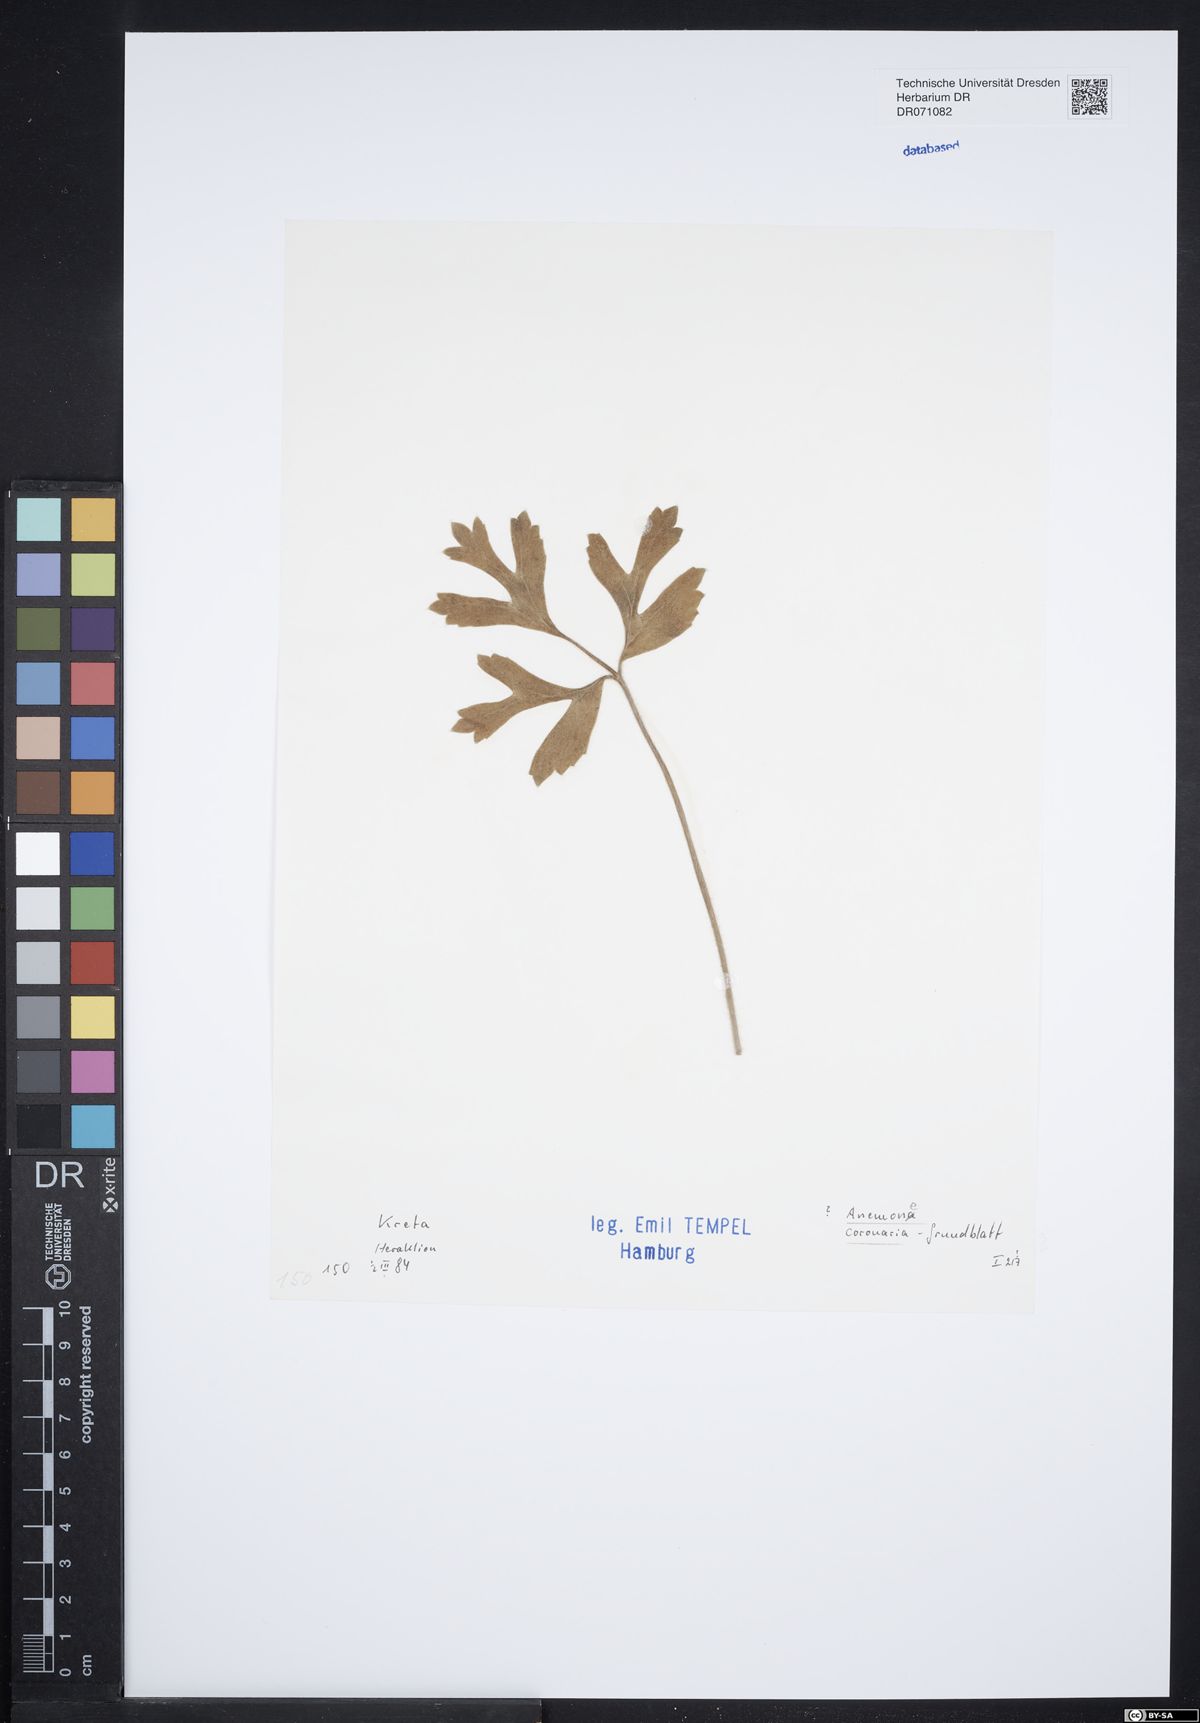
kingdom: Plantae
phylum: Tracheophyta
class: Magnoliopsida
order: Ranunculales
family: Ranunculaceae
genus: Anemone
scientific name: Anemone coronaria
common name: Poppy anemone
